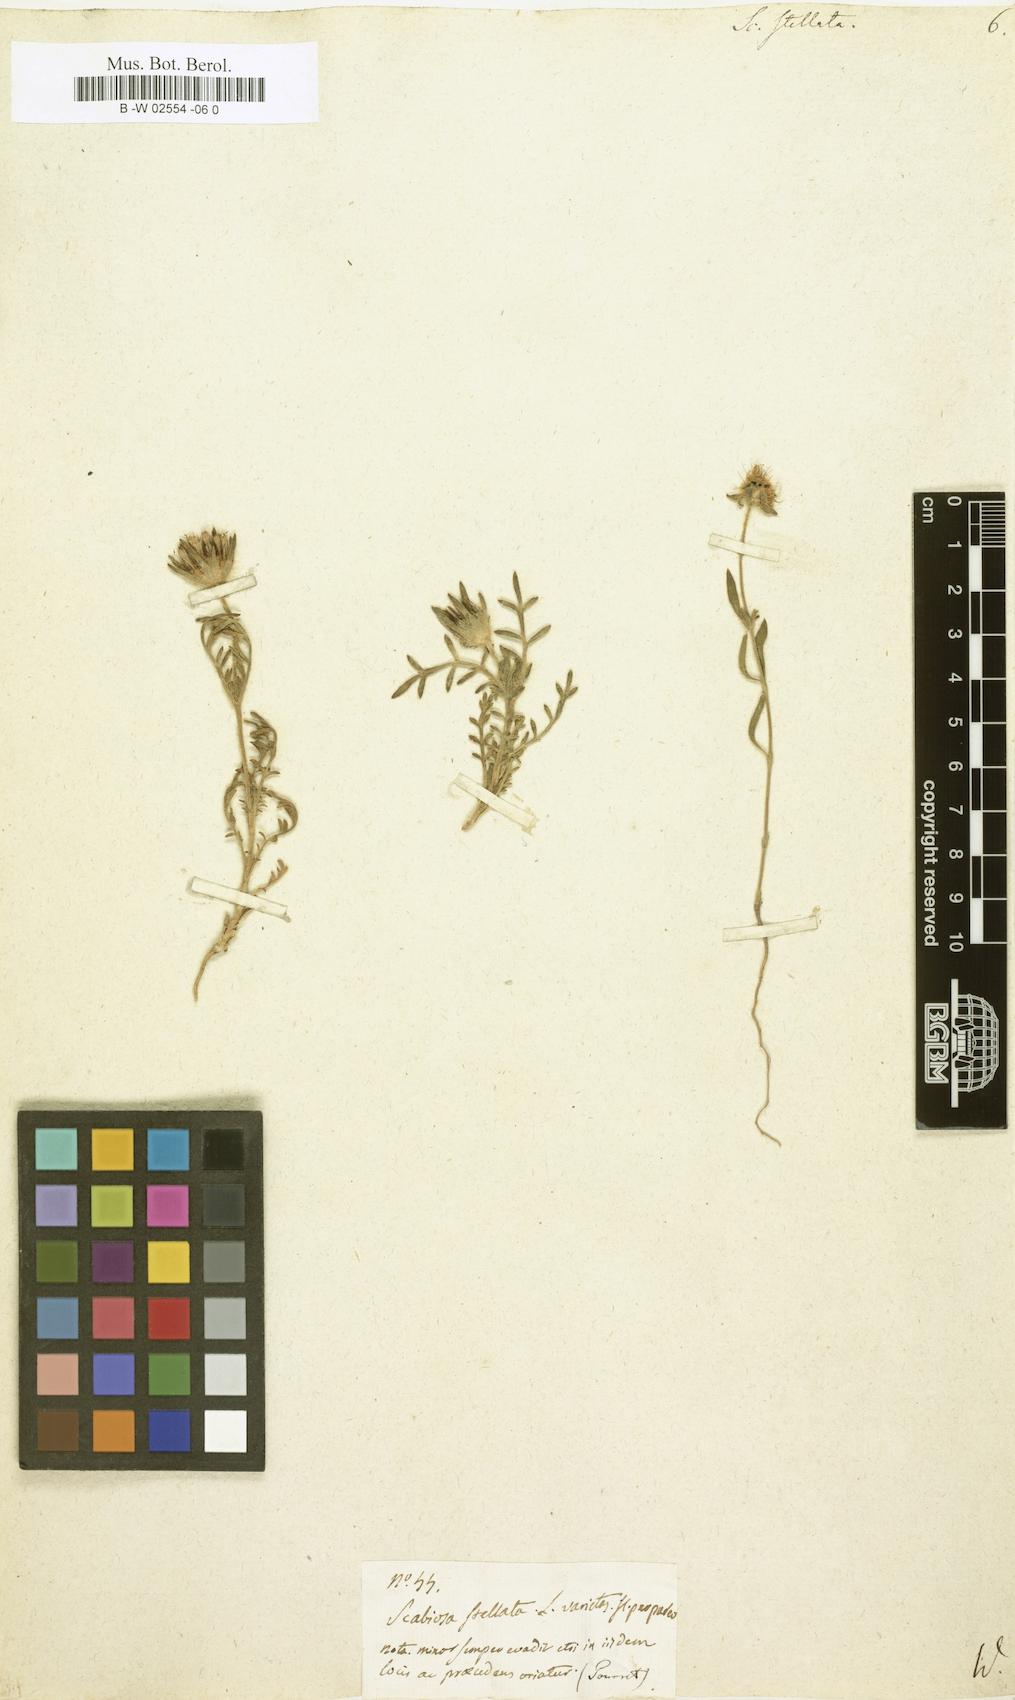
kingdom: Plantae
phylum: Tracheophyta
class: Magnoliopsida
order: Dipsacales
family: Caprifoliaceae
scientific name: Caprifoliaceae
